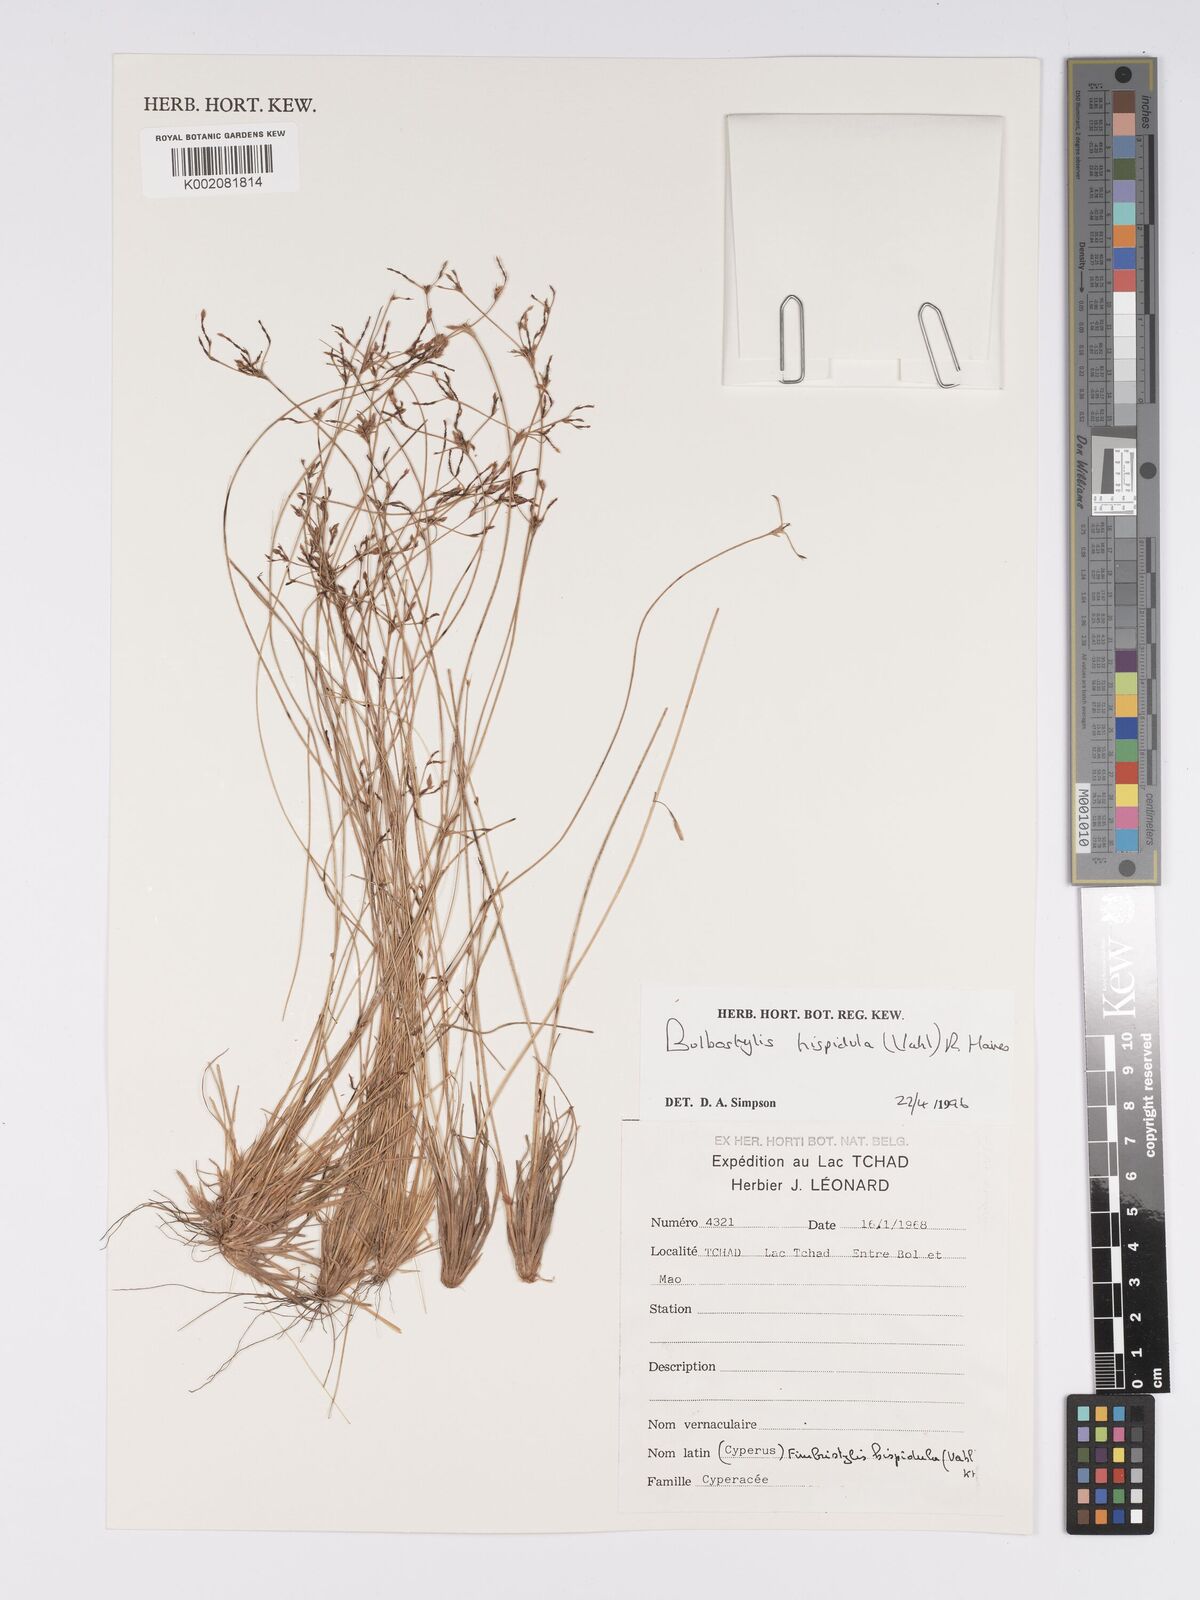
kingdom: Plantae
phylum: Tracheophyta
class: Liliopsida
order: Poales
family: Cyperaceae
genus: Bulbostylis
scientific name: Bulbostylis hispidula
